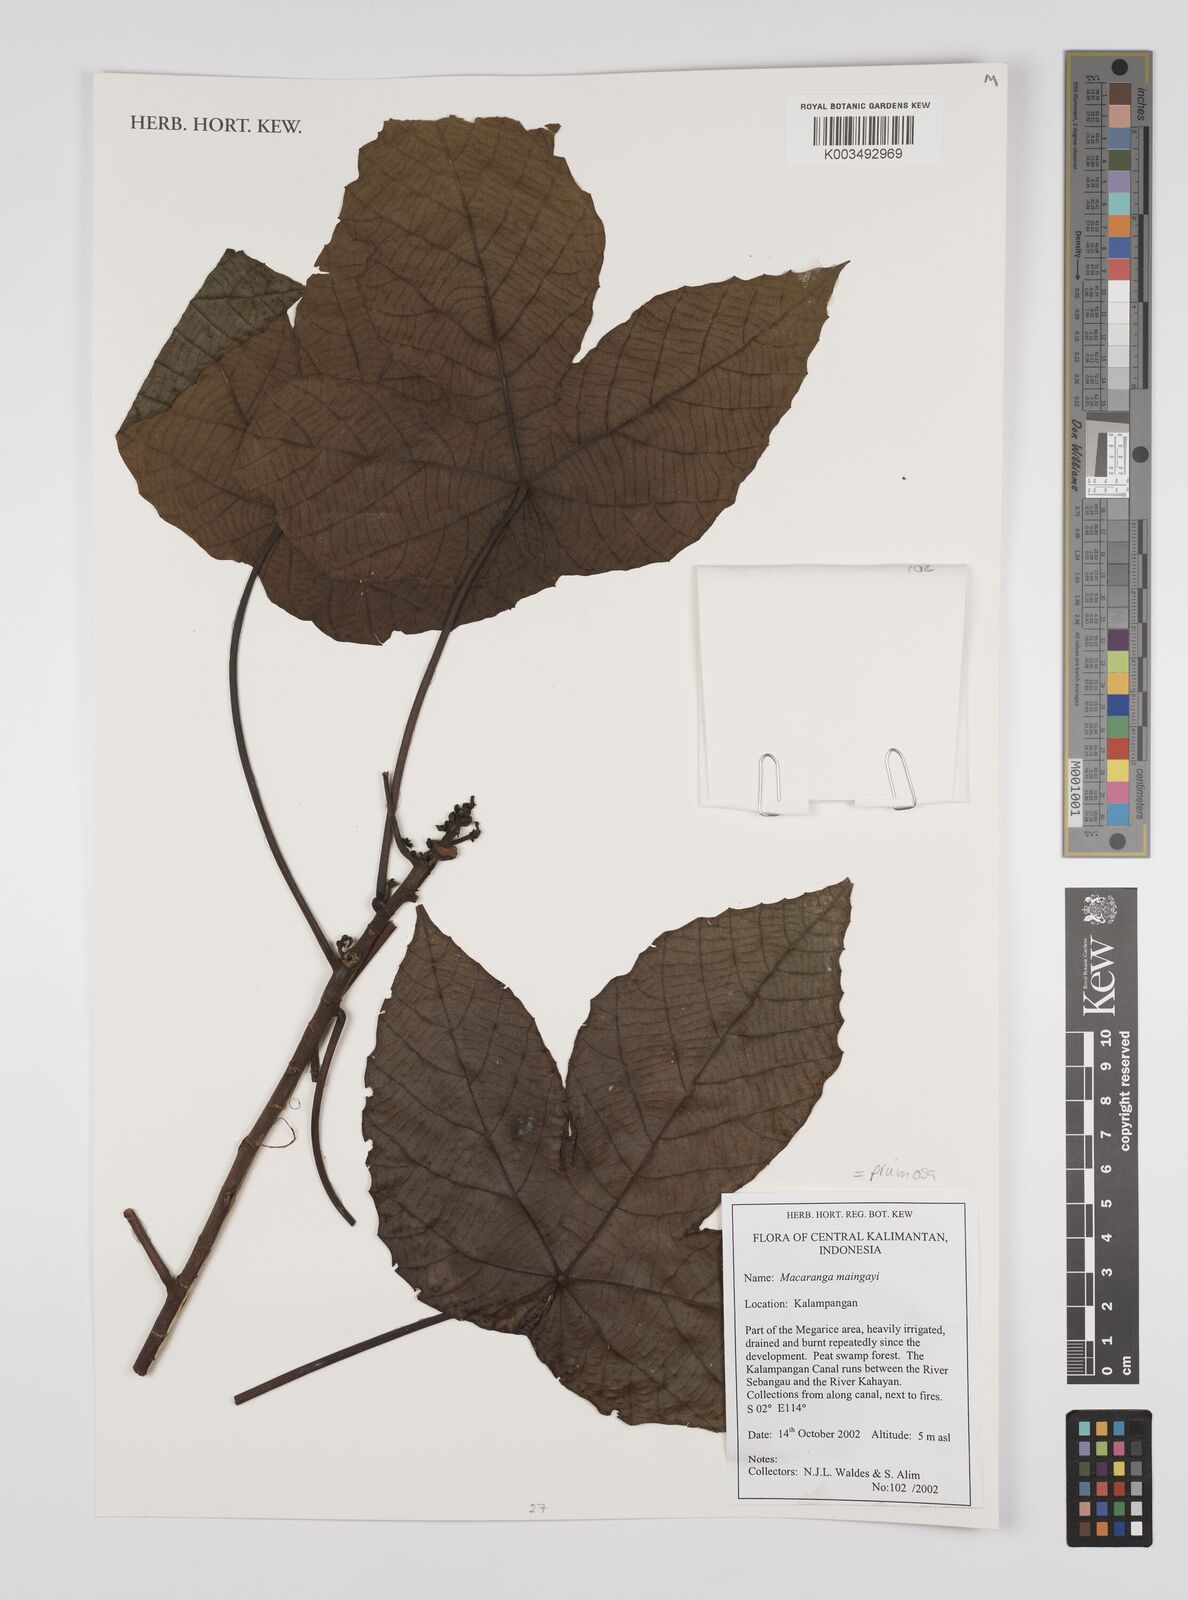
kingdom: Plantae
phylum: Tracheophyta
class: Magnoliopsida
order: Malpighiales
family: Euphorbiaceae
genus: Macaranga
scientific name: Macaranga pruinosa
